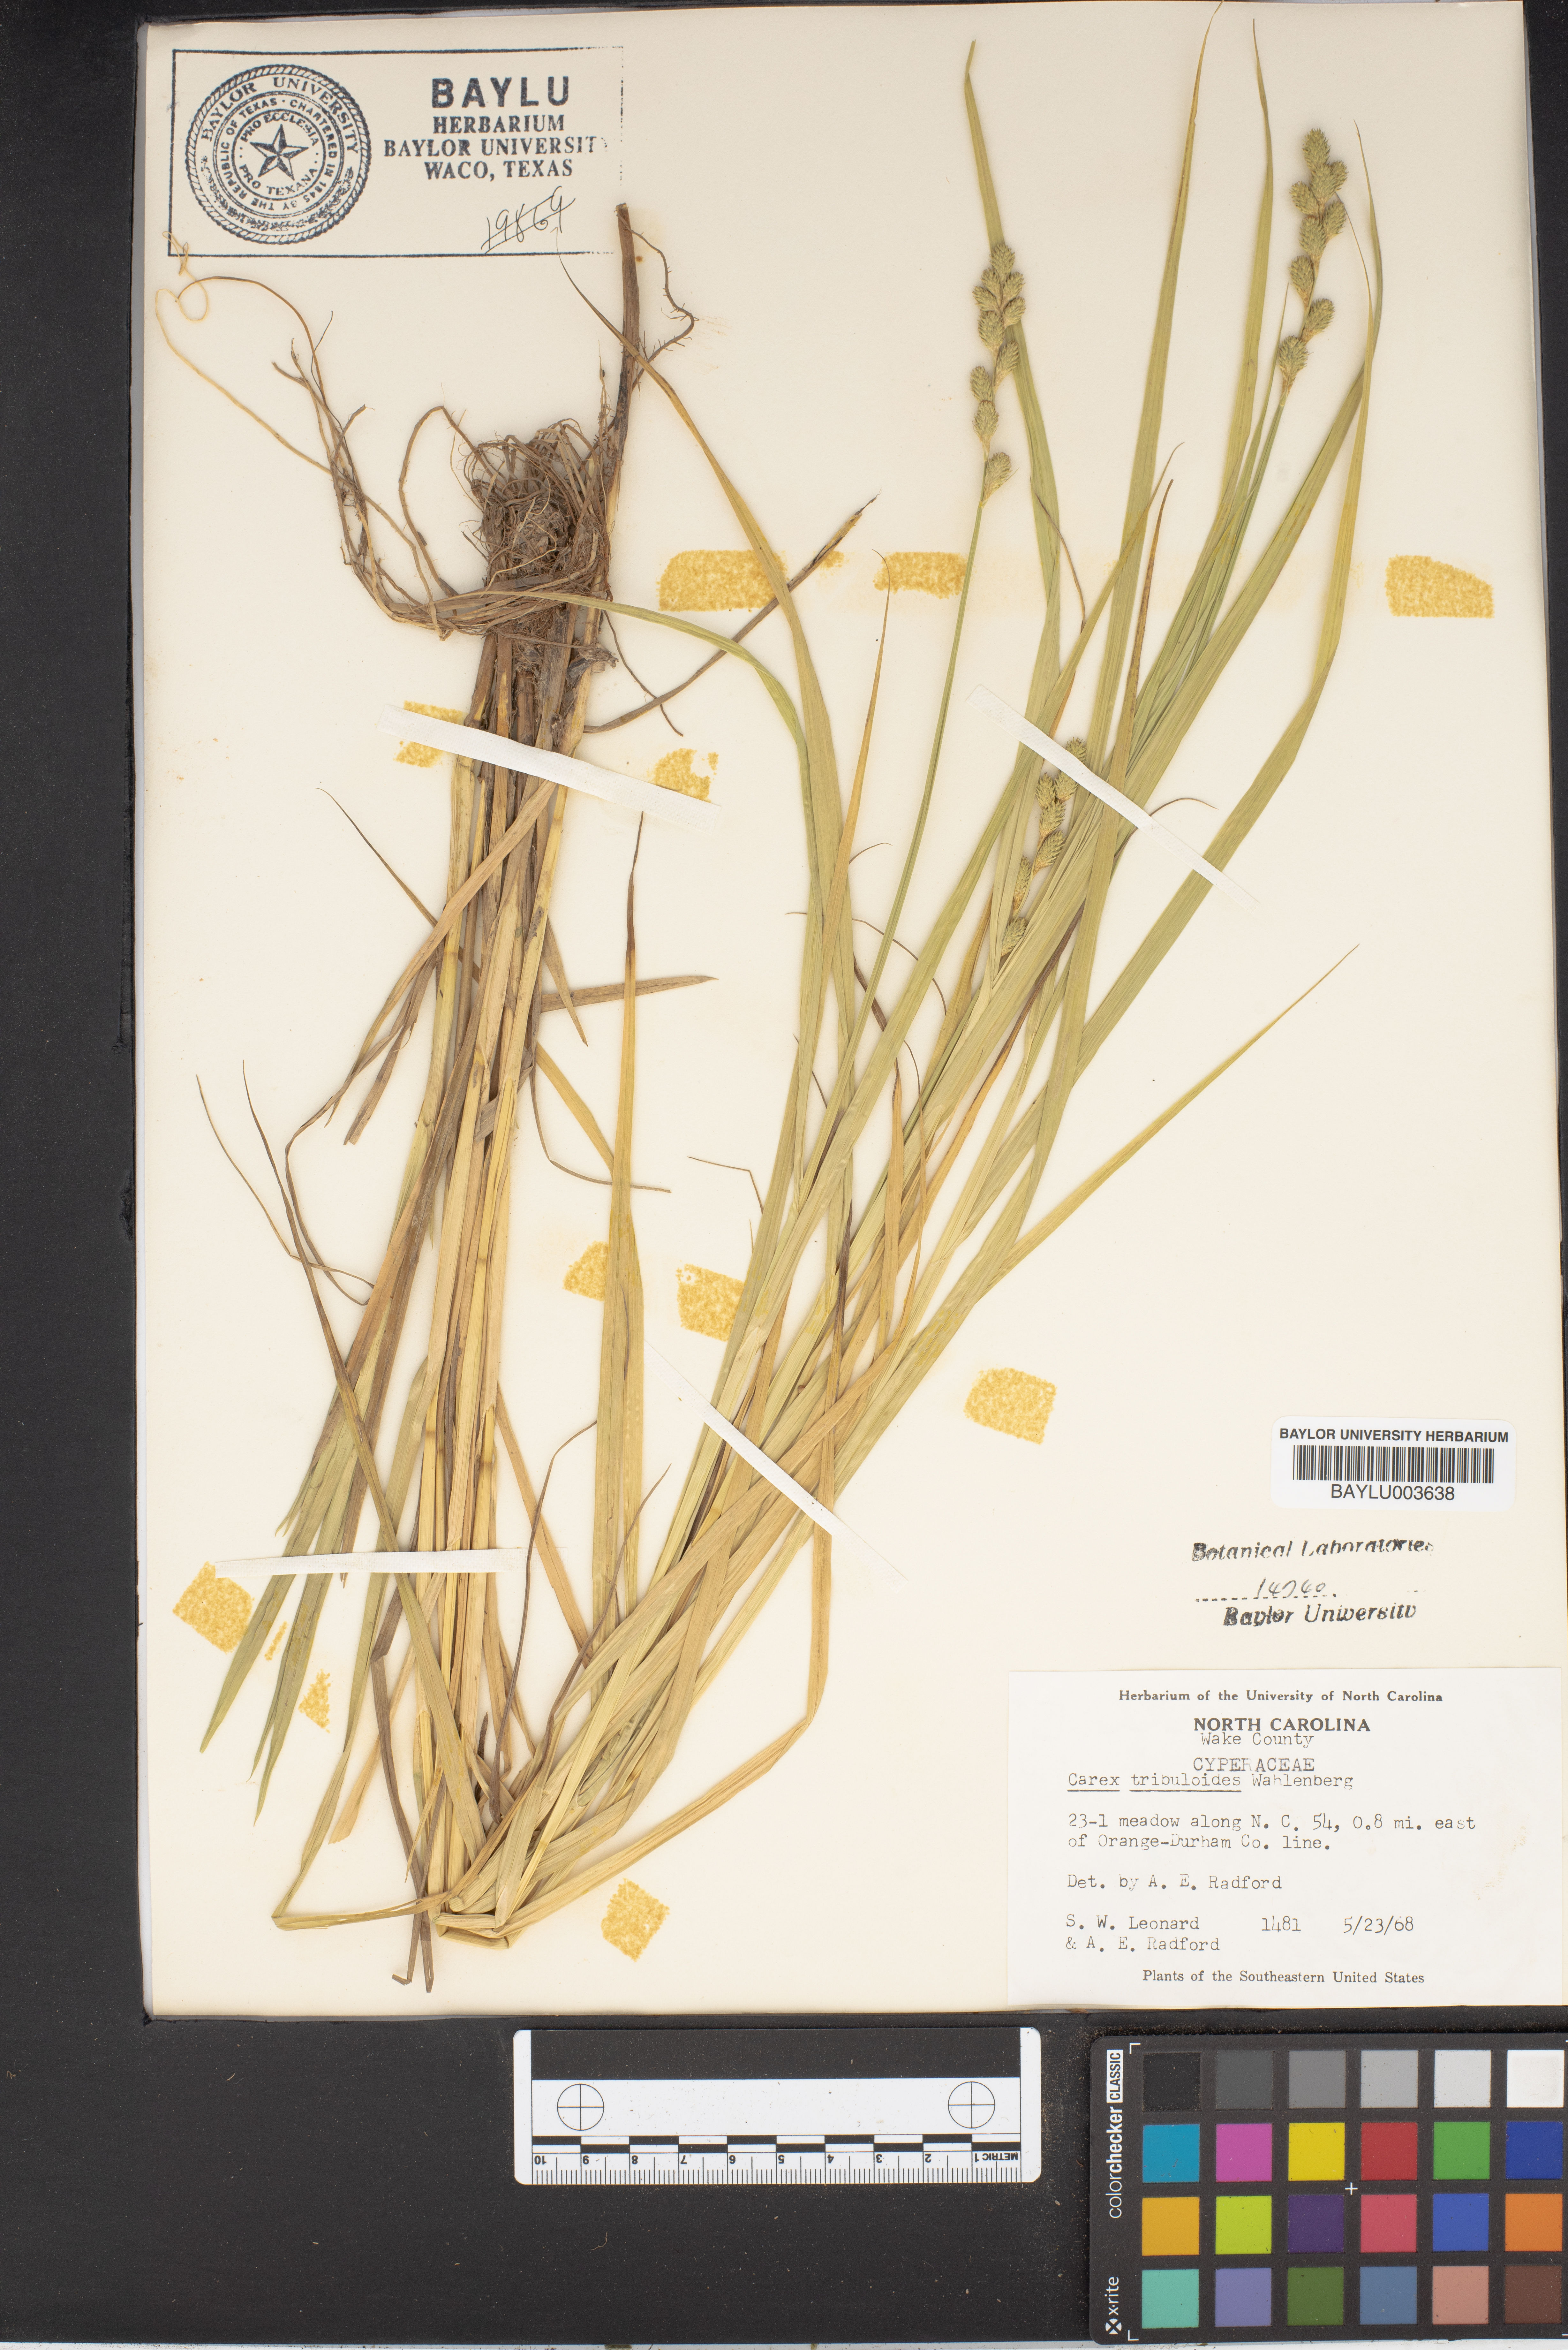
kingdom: Plantae
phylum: Tracheophyta
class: Liliopsida
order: Poales
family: Cyperaceae
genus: Carex
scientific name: Carex tribuloides
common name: Blunt broom sedge
